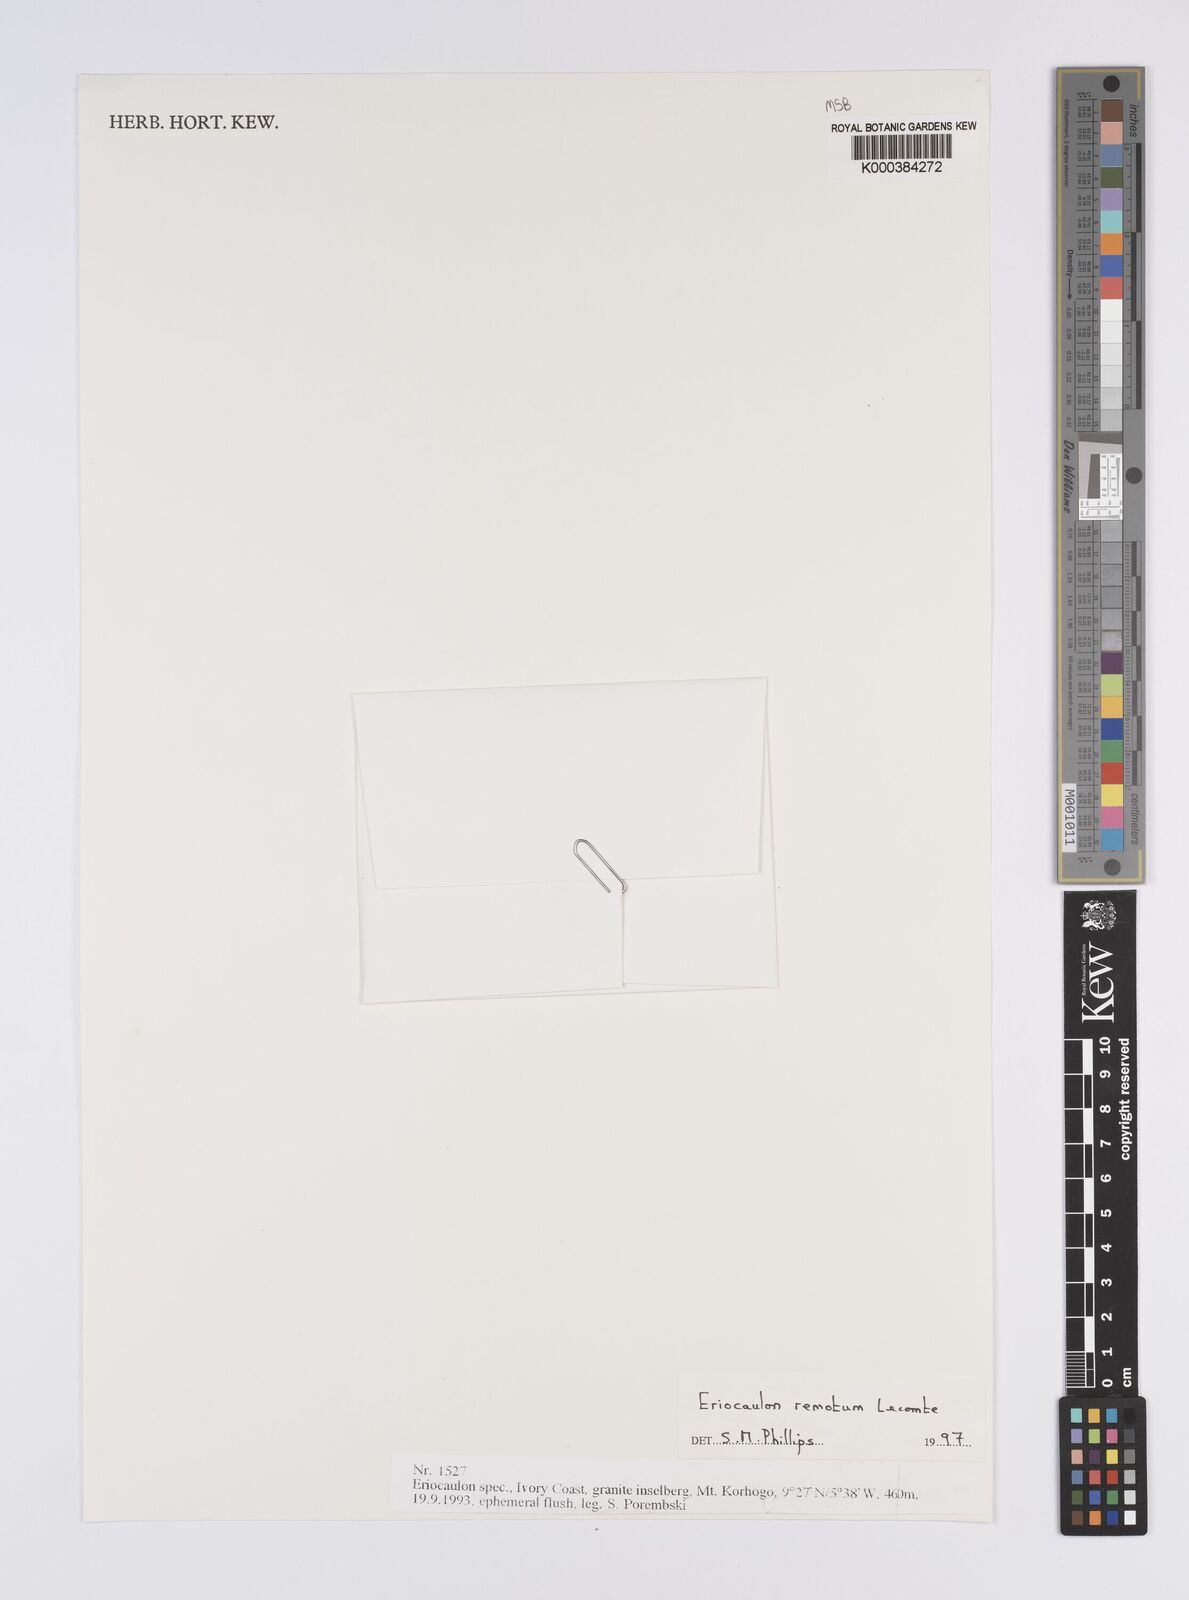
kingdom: Plantae
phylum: Tracheophyta
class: Liliopsida
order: Poales
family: Eriocaulaceae
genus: Eriocaulon
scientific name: Eriocaulon remotum
